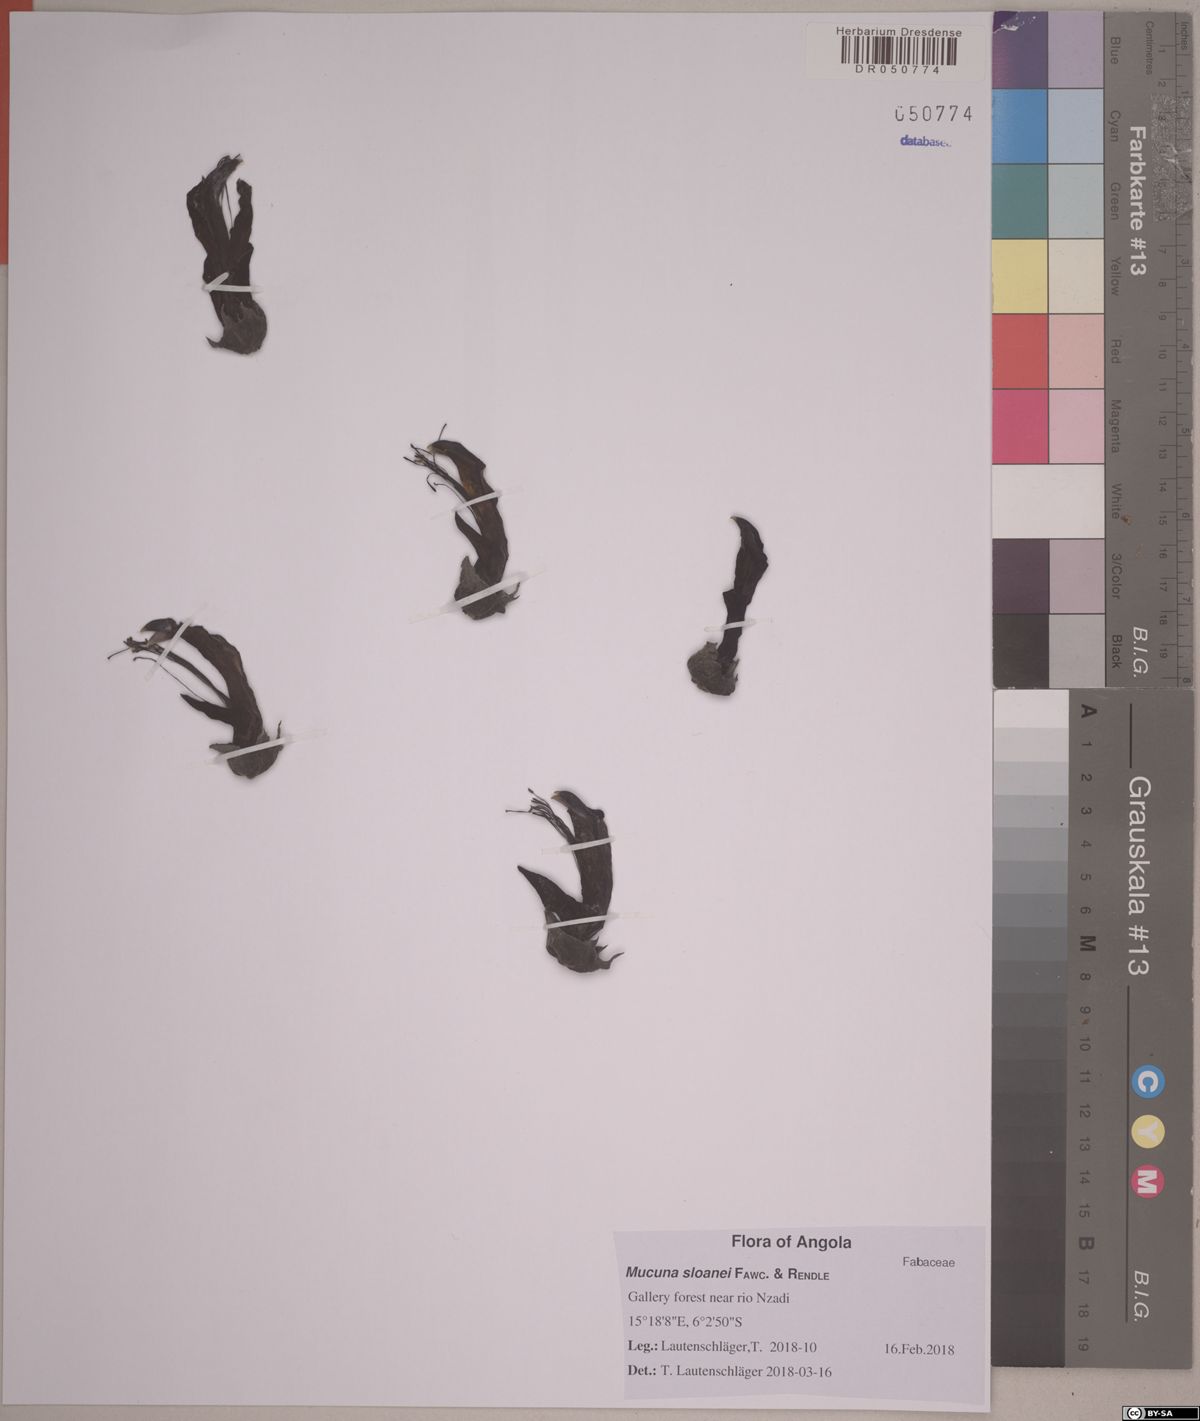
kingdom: Plantae
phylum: Tracheophyta
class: Magnoliopsida
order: Fabales
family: Fabaceae
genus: Mucuna
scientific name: Mucuna sloanei
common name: Horse-eye bean
